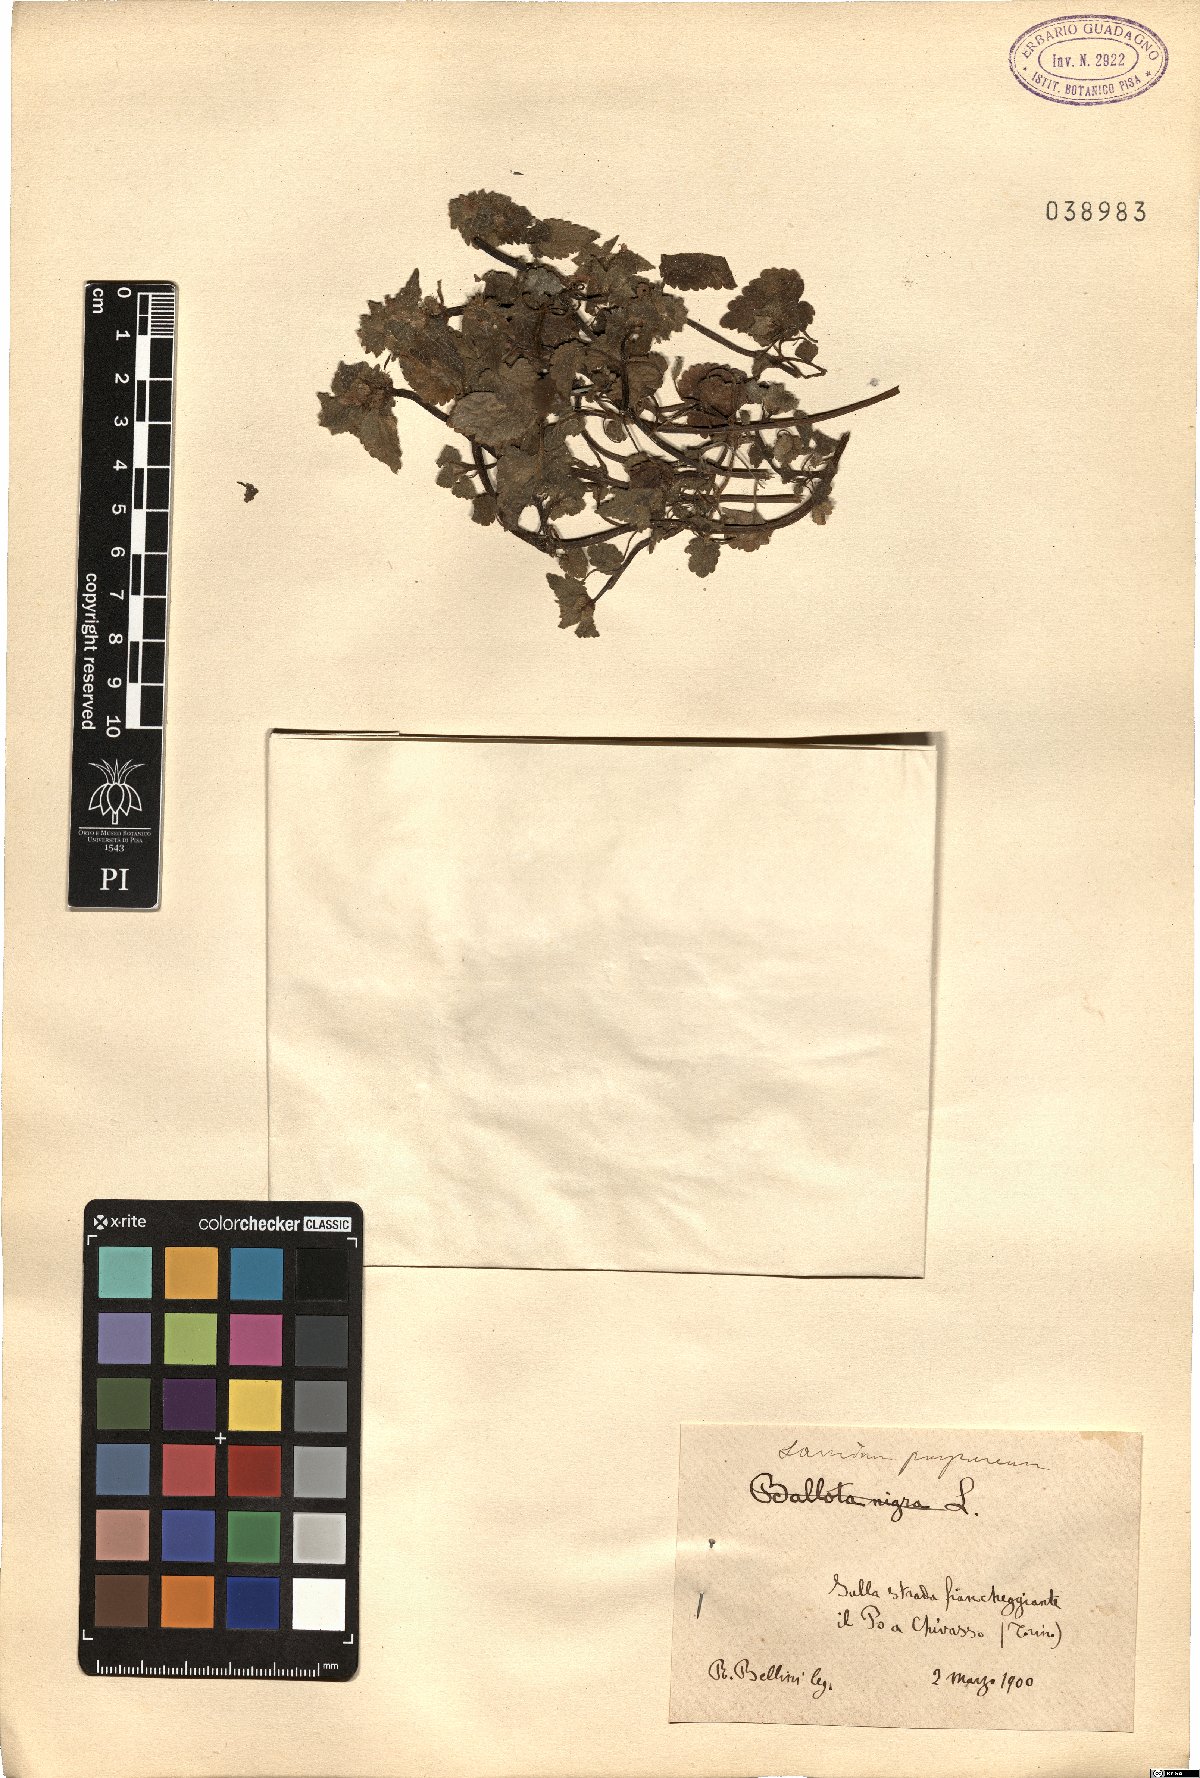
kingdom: Plantae
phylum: Tracheophyta
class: Magnoliopsida
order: Lamiales
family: Lamiaceae
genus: Lamium
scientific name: Lamium purpureum
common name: Red dead-nettle
